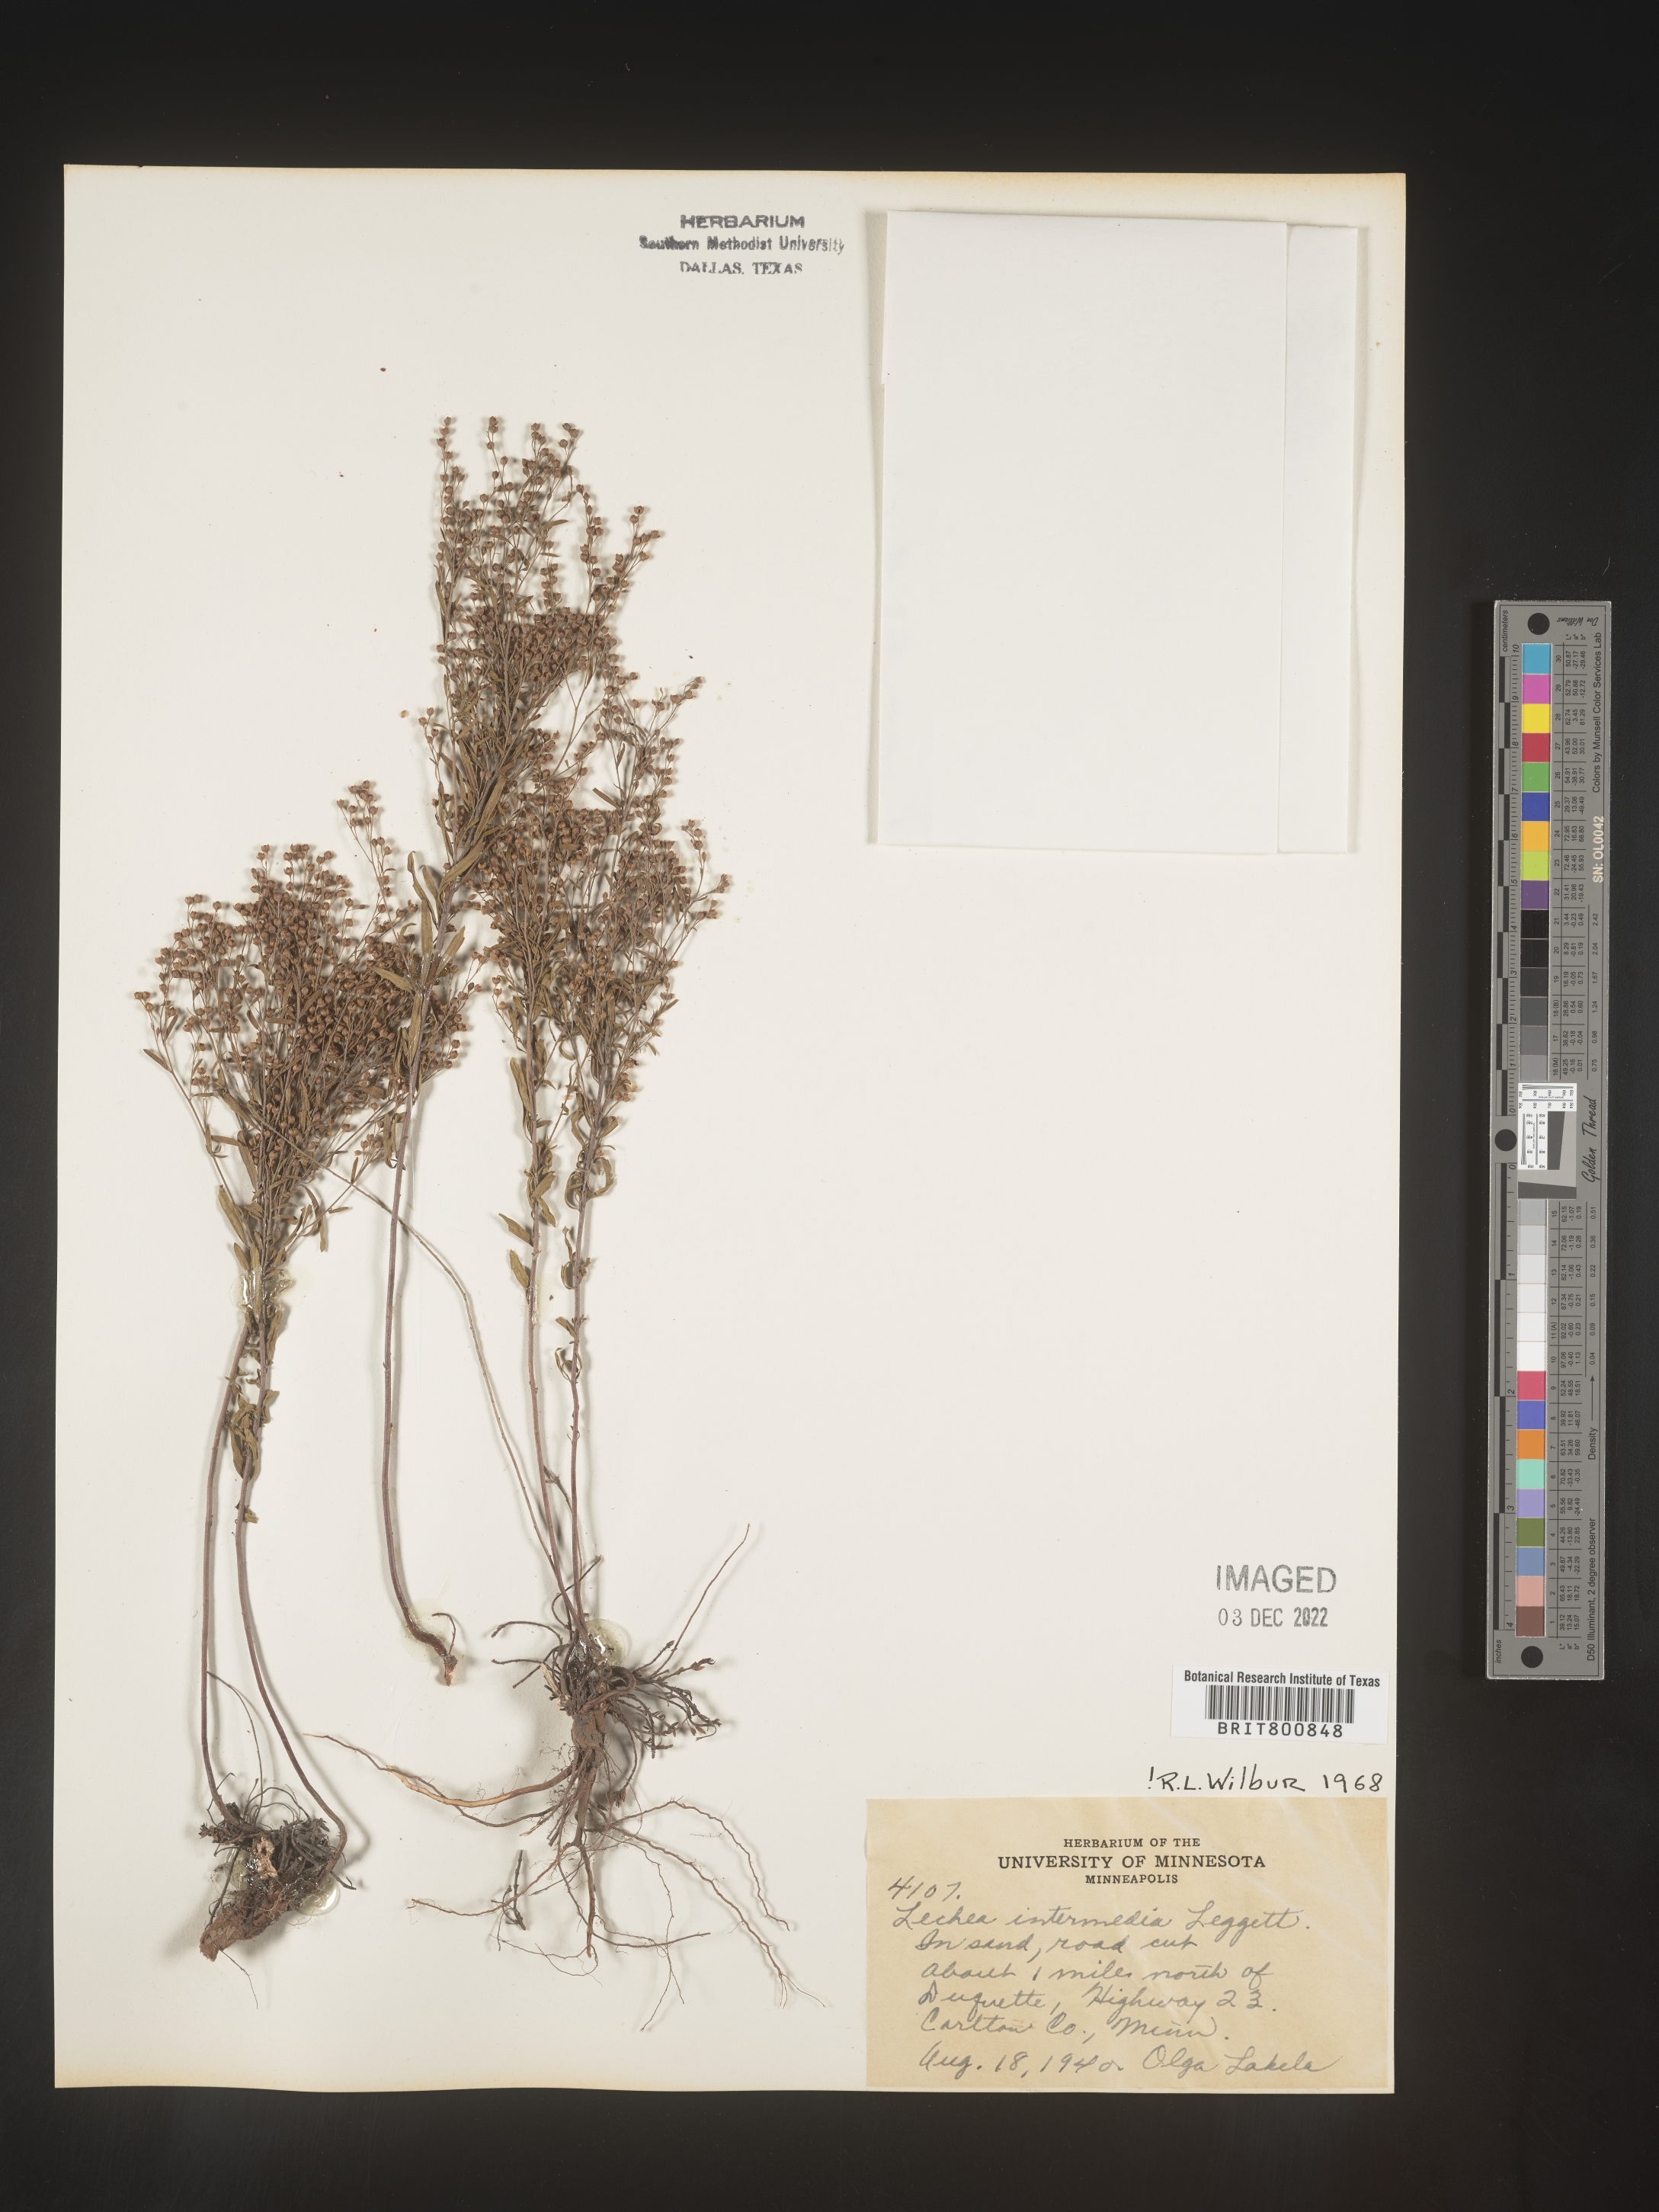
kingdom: Plantae
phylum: Tracheophyta
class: Magnoliopsida
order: Malvales
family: Cistaceae
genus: Lechea
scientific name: Lechea intermedia
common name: Intermediate pinweed
